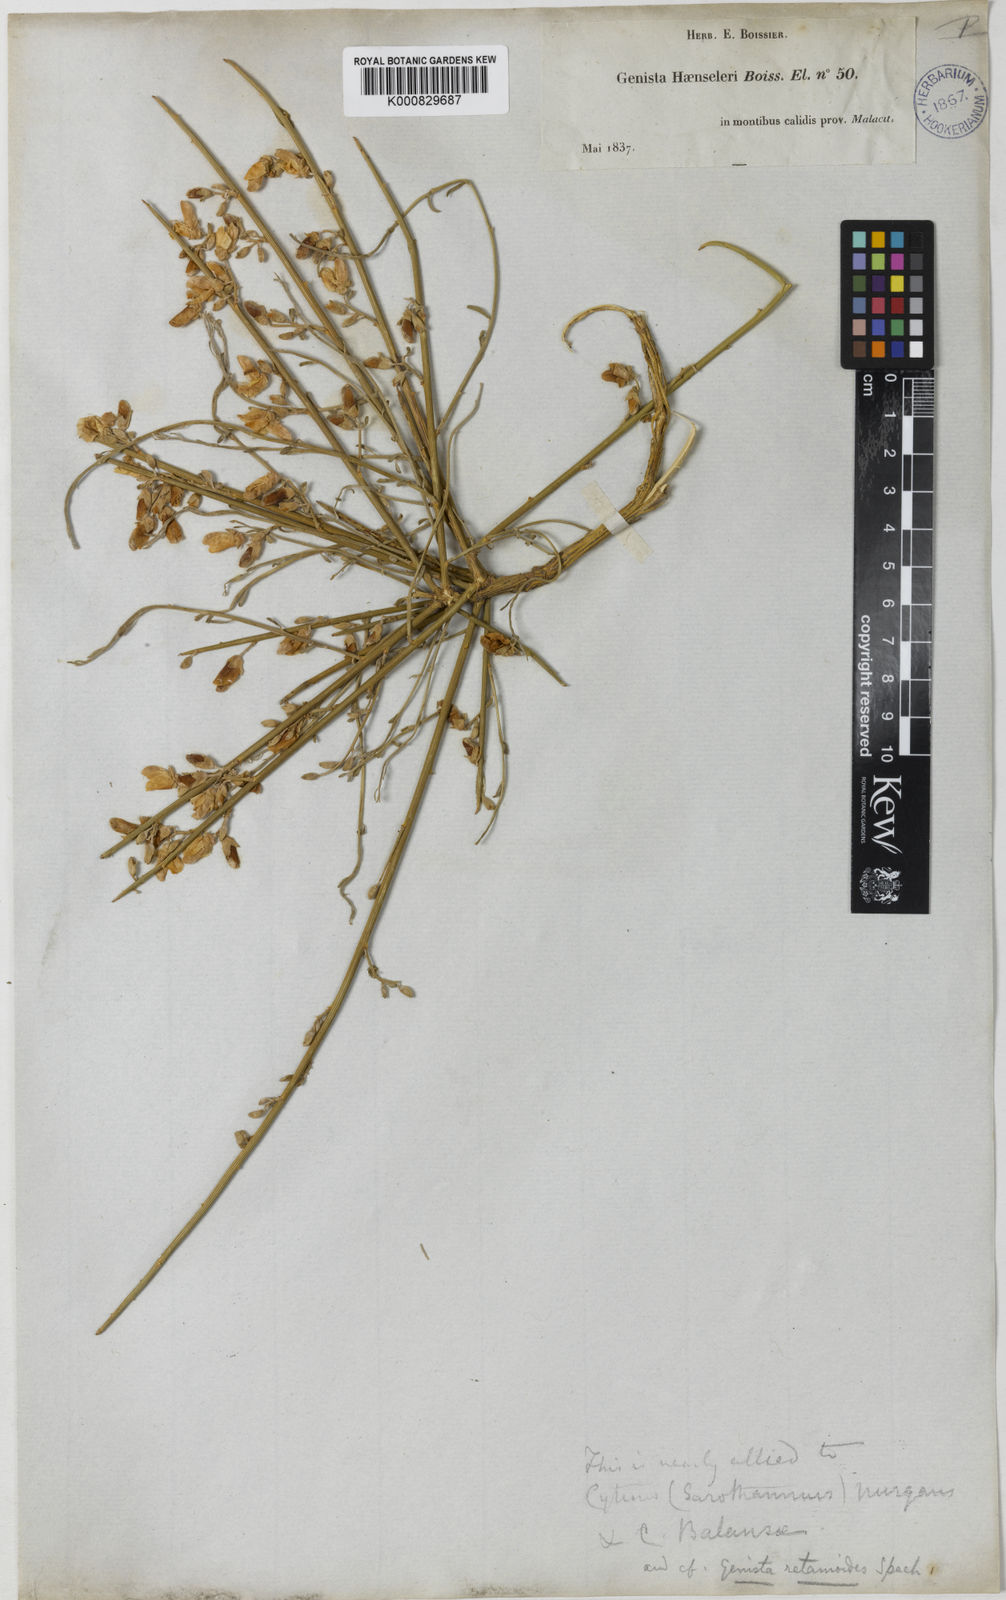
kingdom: Plantae
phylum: Tracheophyta
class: Magnoliopsida
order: Fabales
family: Fabaceae
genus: Genista
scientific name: Genista haensleri
